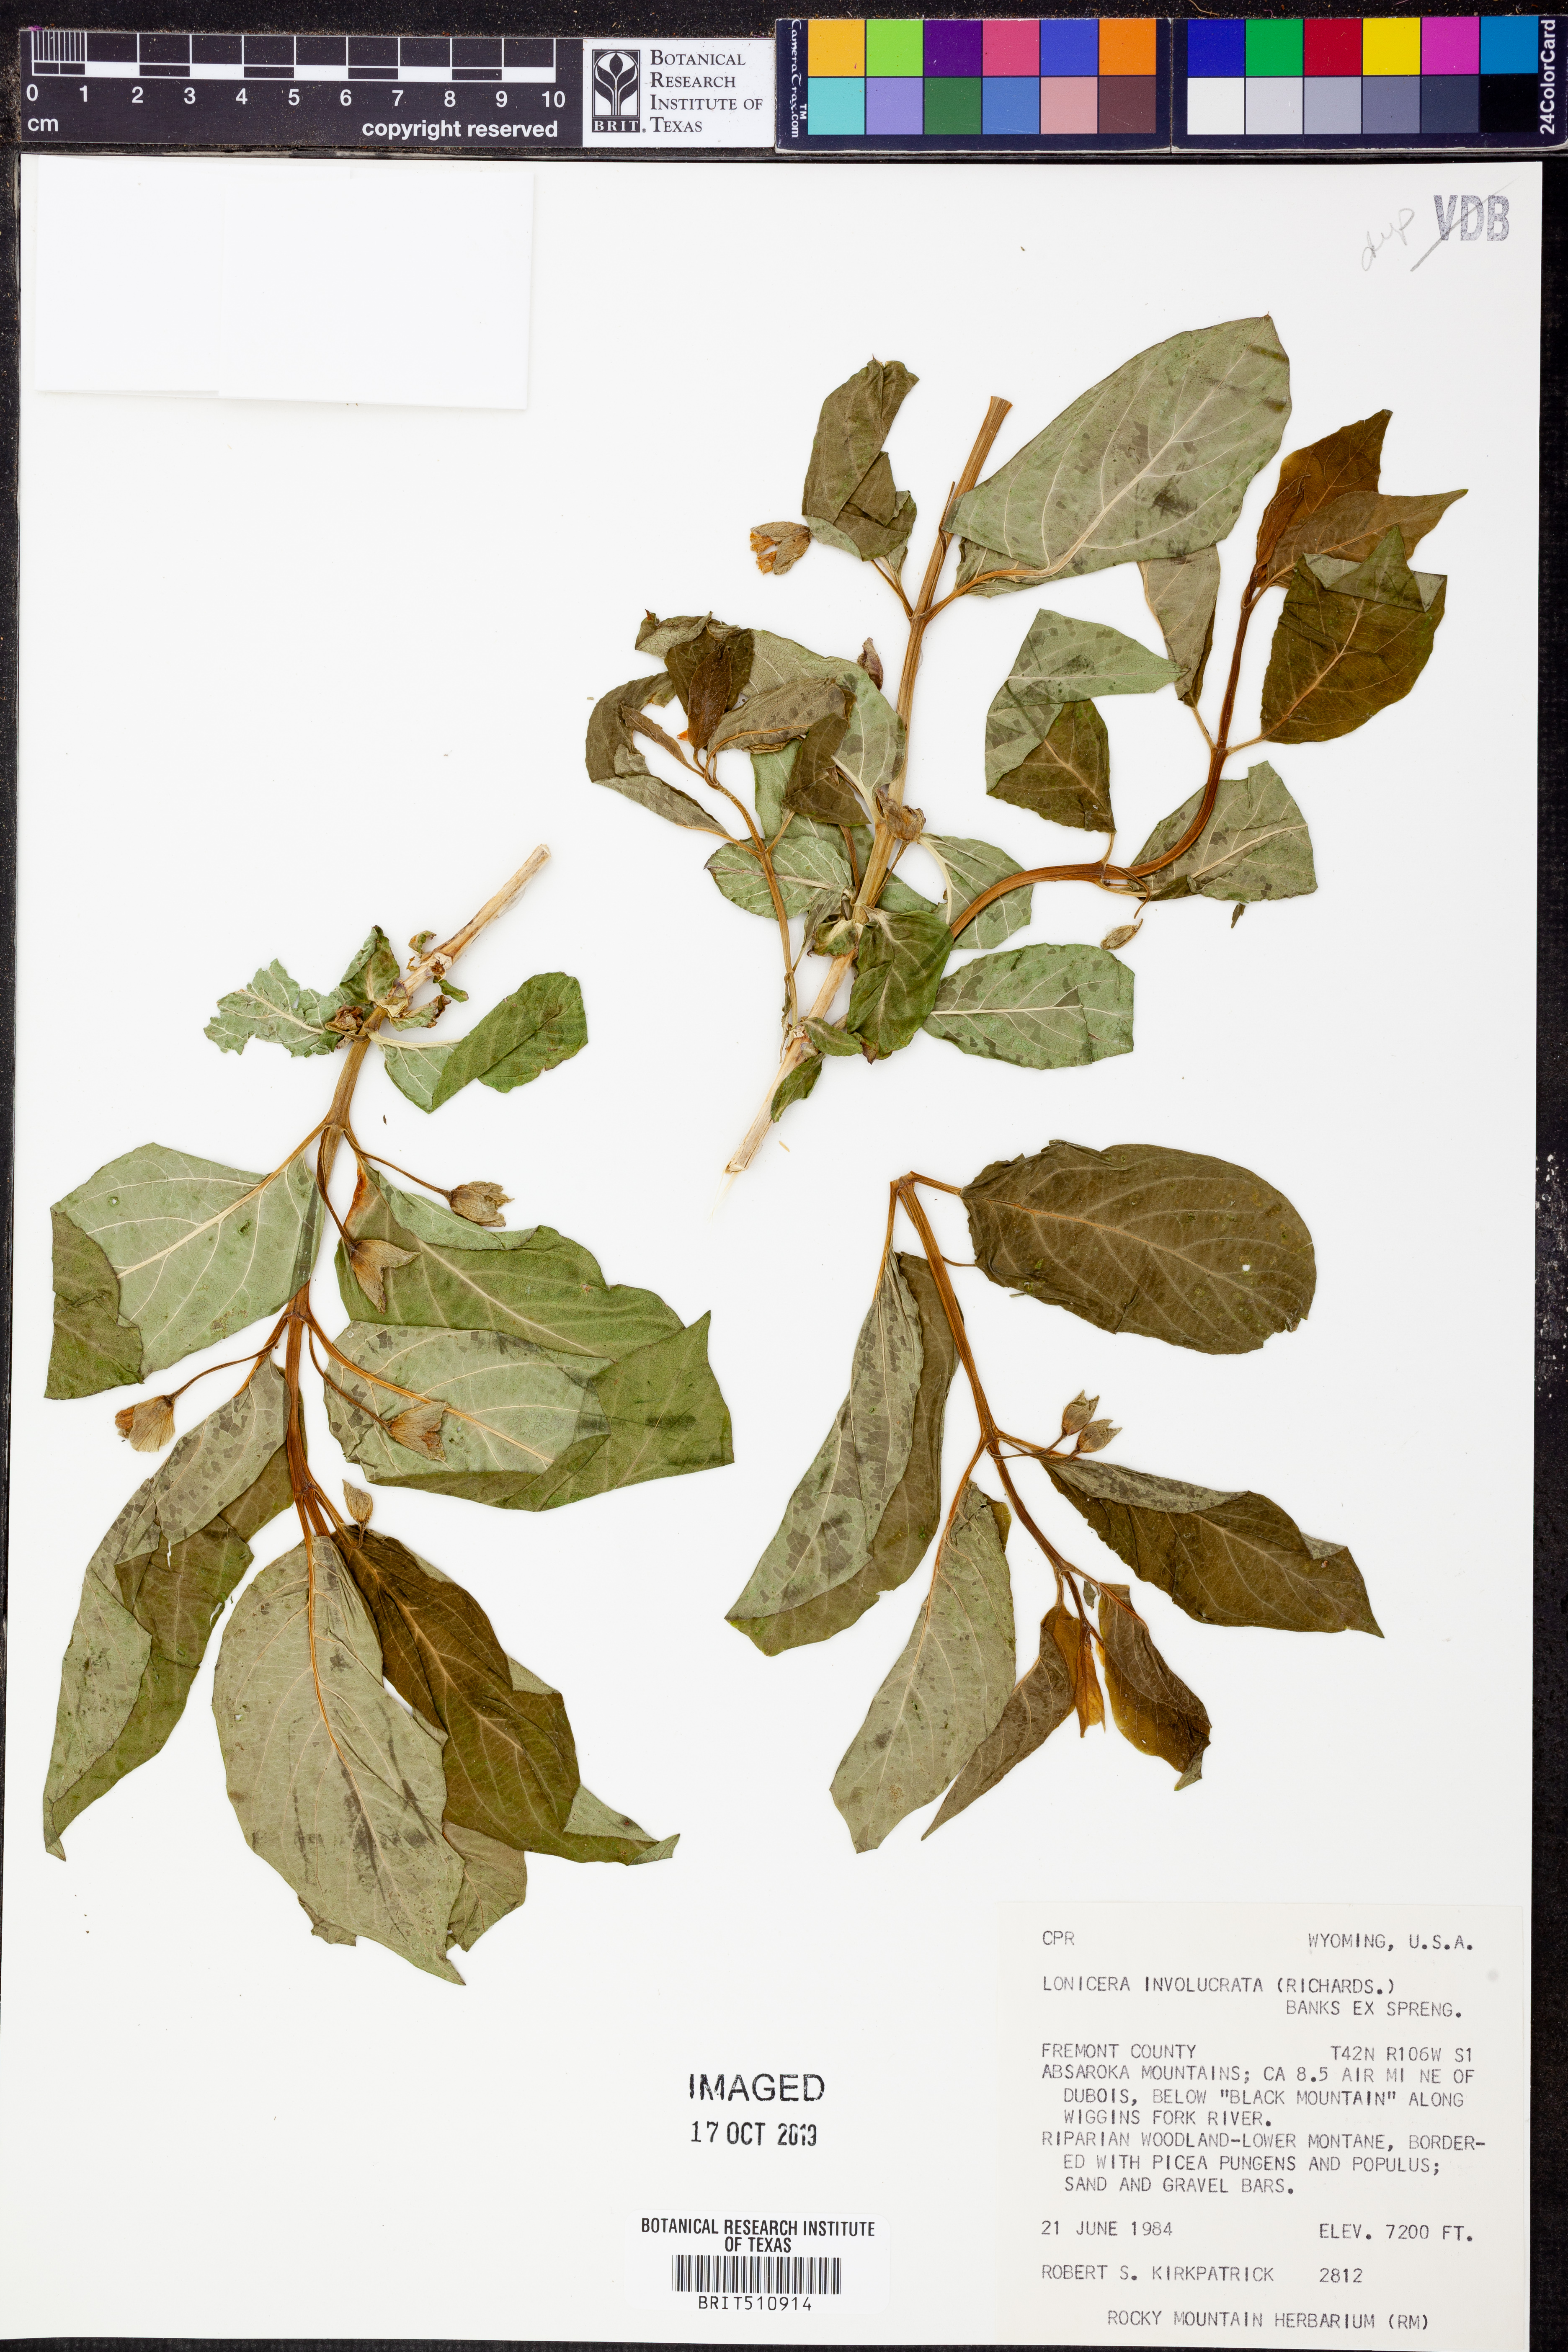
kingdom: Plantae
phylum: Tracheophyta
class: Magnoliopsida
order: Dipsacales
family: Caprifoliaceae
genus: Lonicera
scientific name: Lonicera involucrata
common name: Californian honeysuckle
